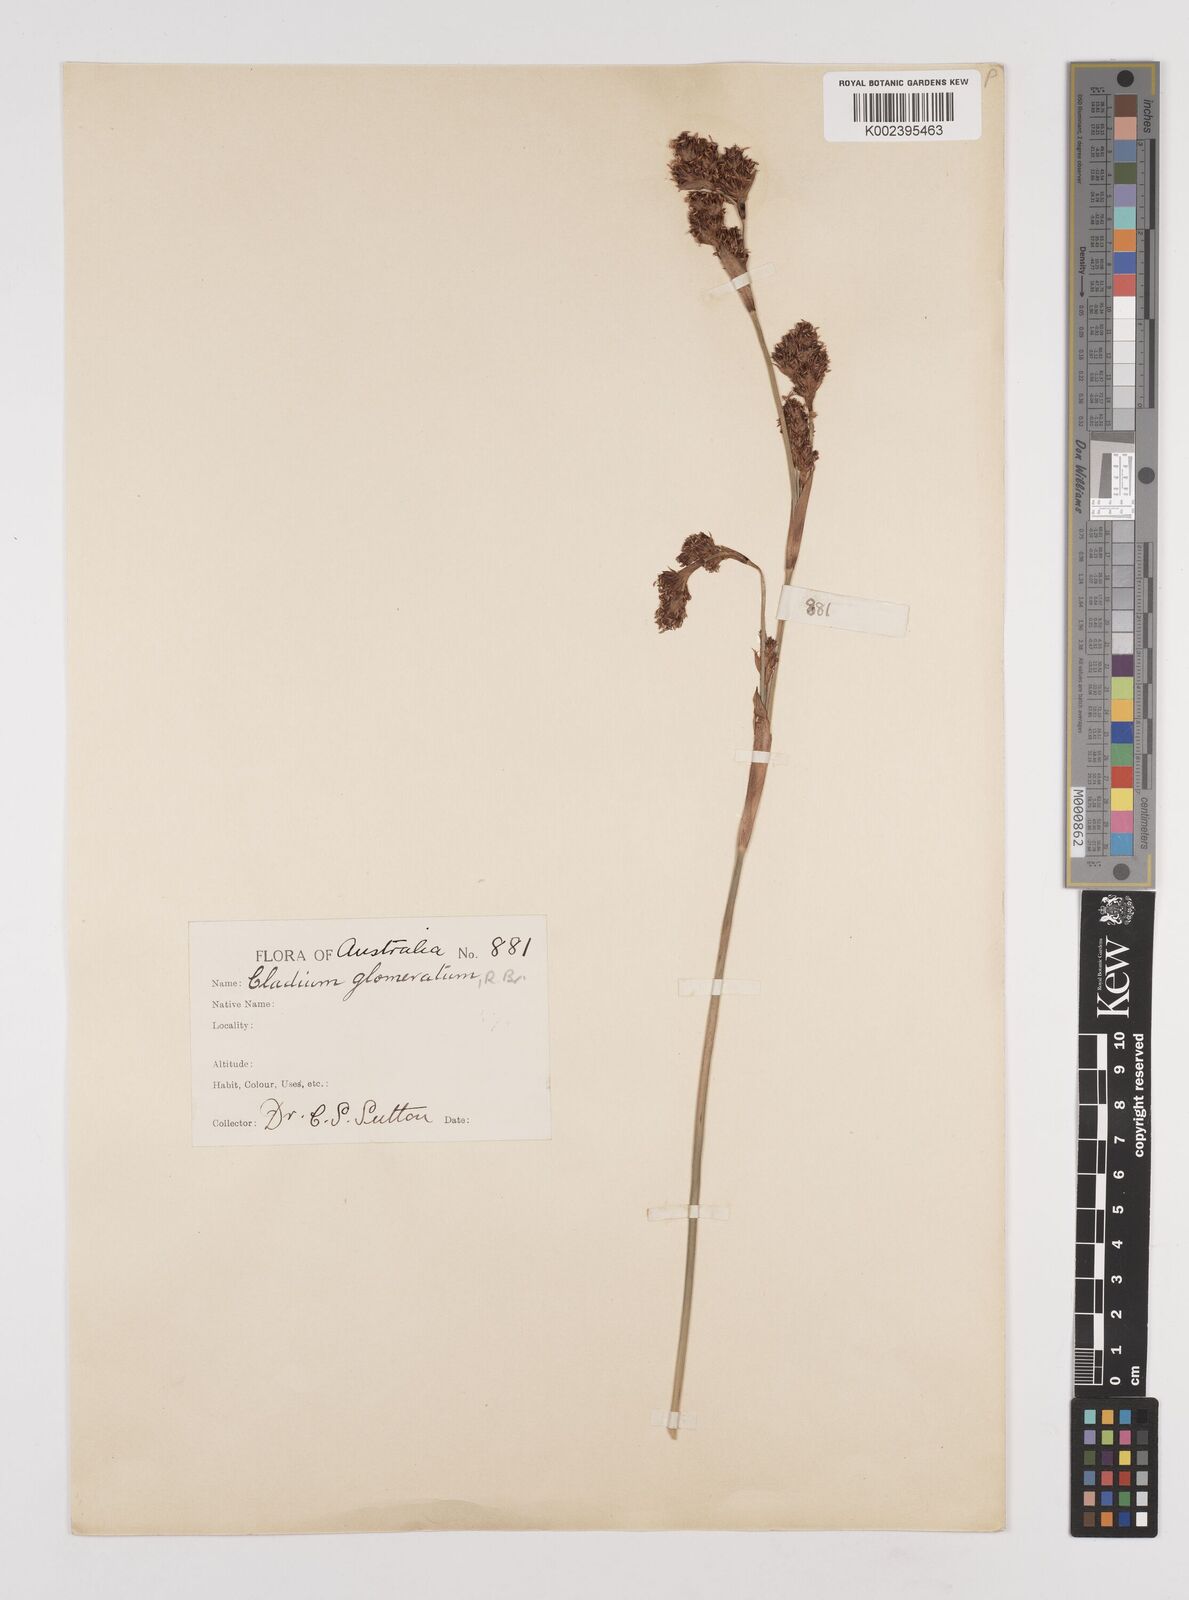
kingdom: Plantae
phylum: Tracheophyta
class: Liliopsida
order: Poales
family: Cyperaceae
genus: Machaerina
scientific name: Machaerina rubiginosa
